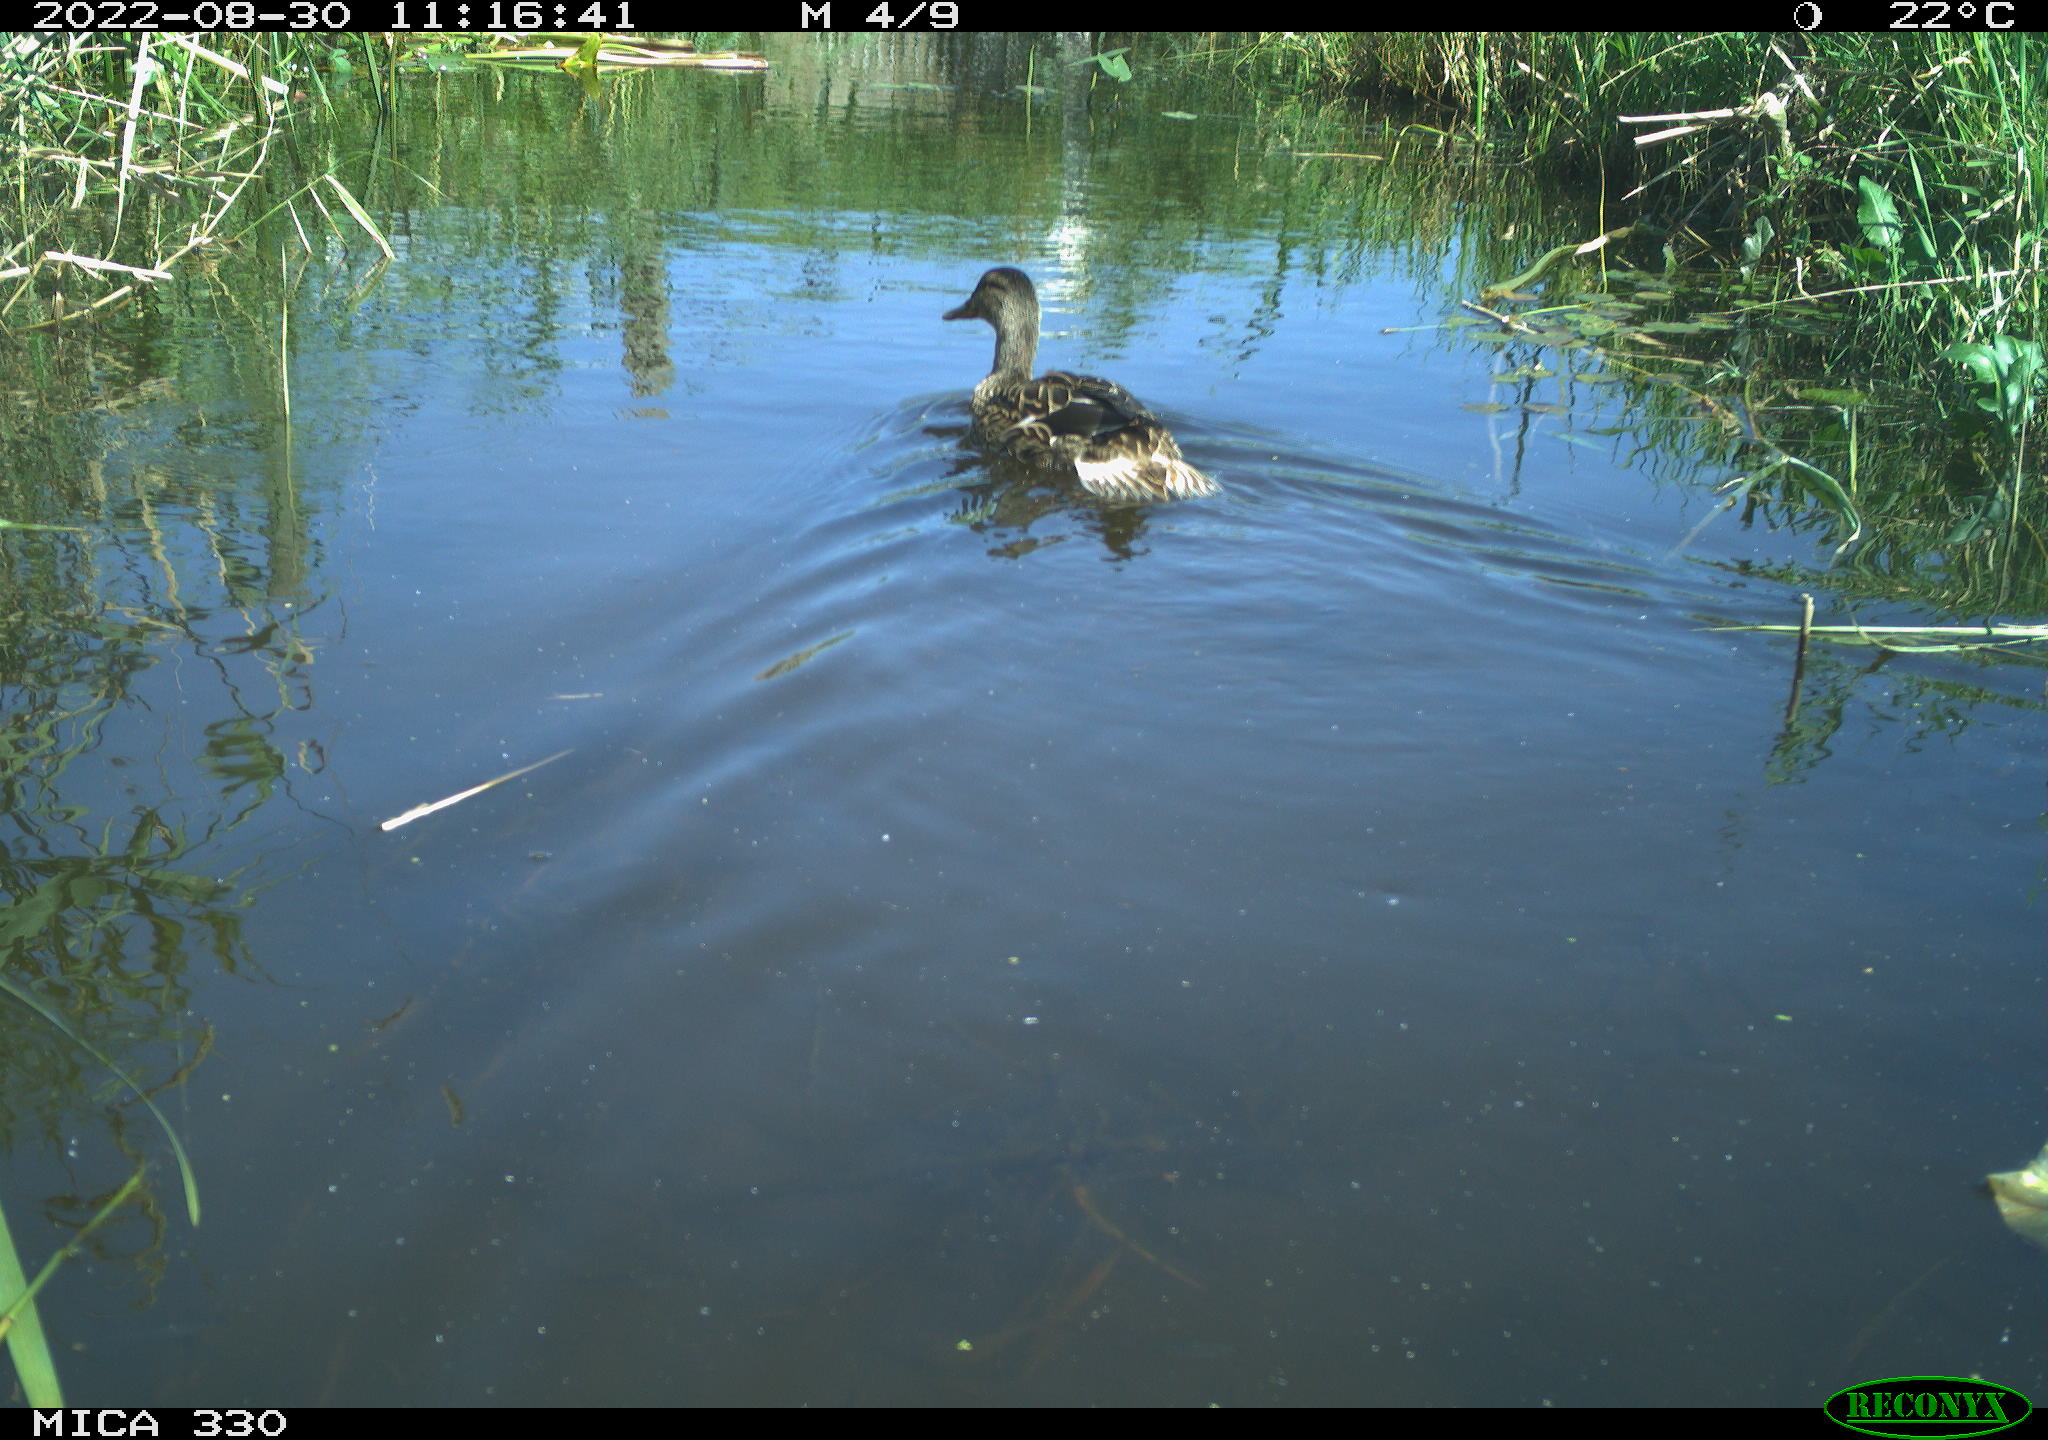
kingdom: Animalia
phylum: Chordata
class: Aves
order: Anseriformes
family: Anatidae
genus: Anas
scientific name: Anas platyrhynchos
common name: Mallard
